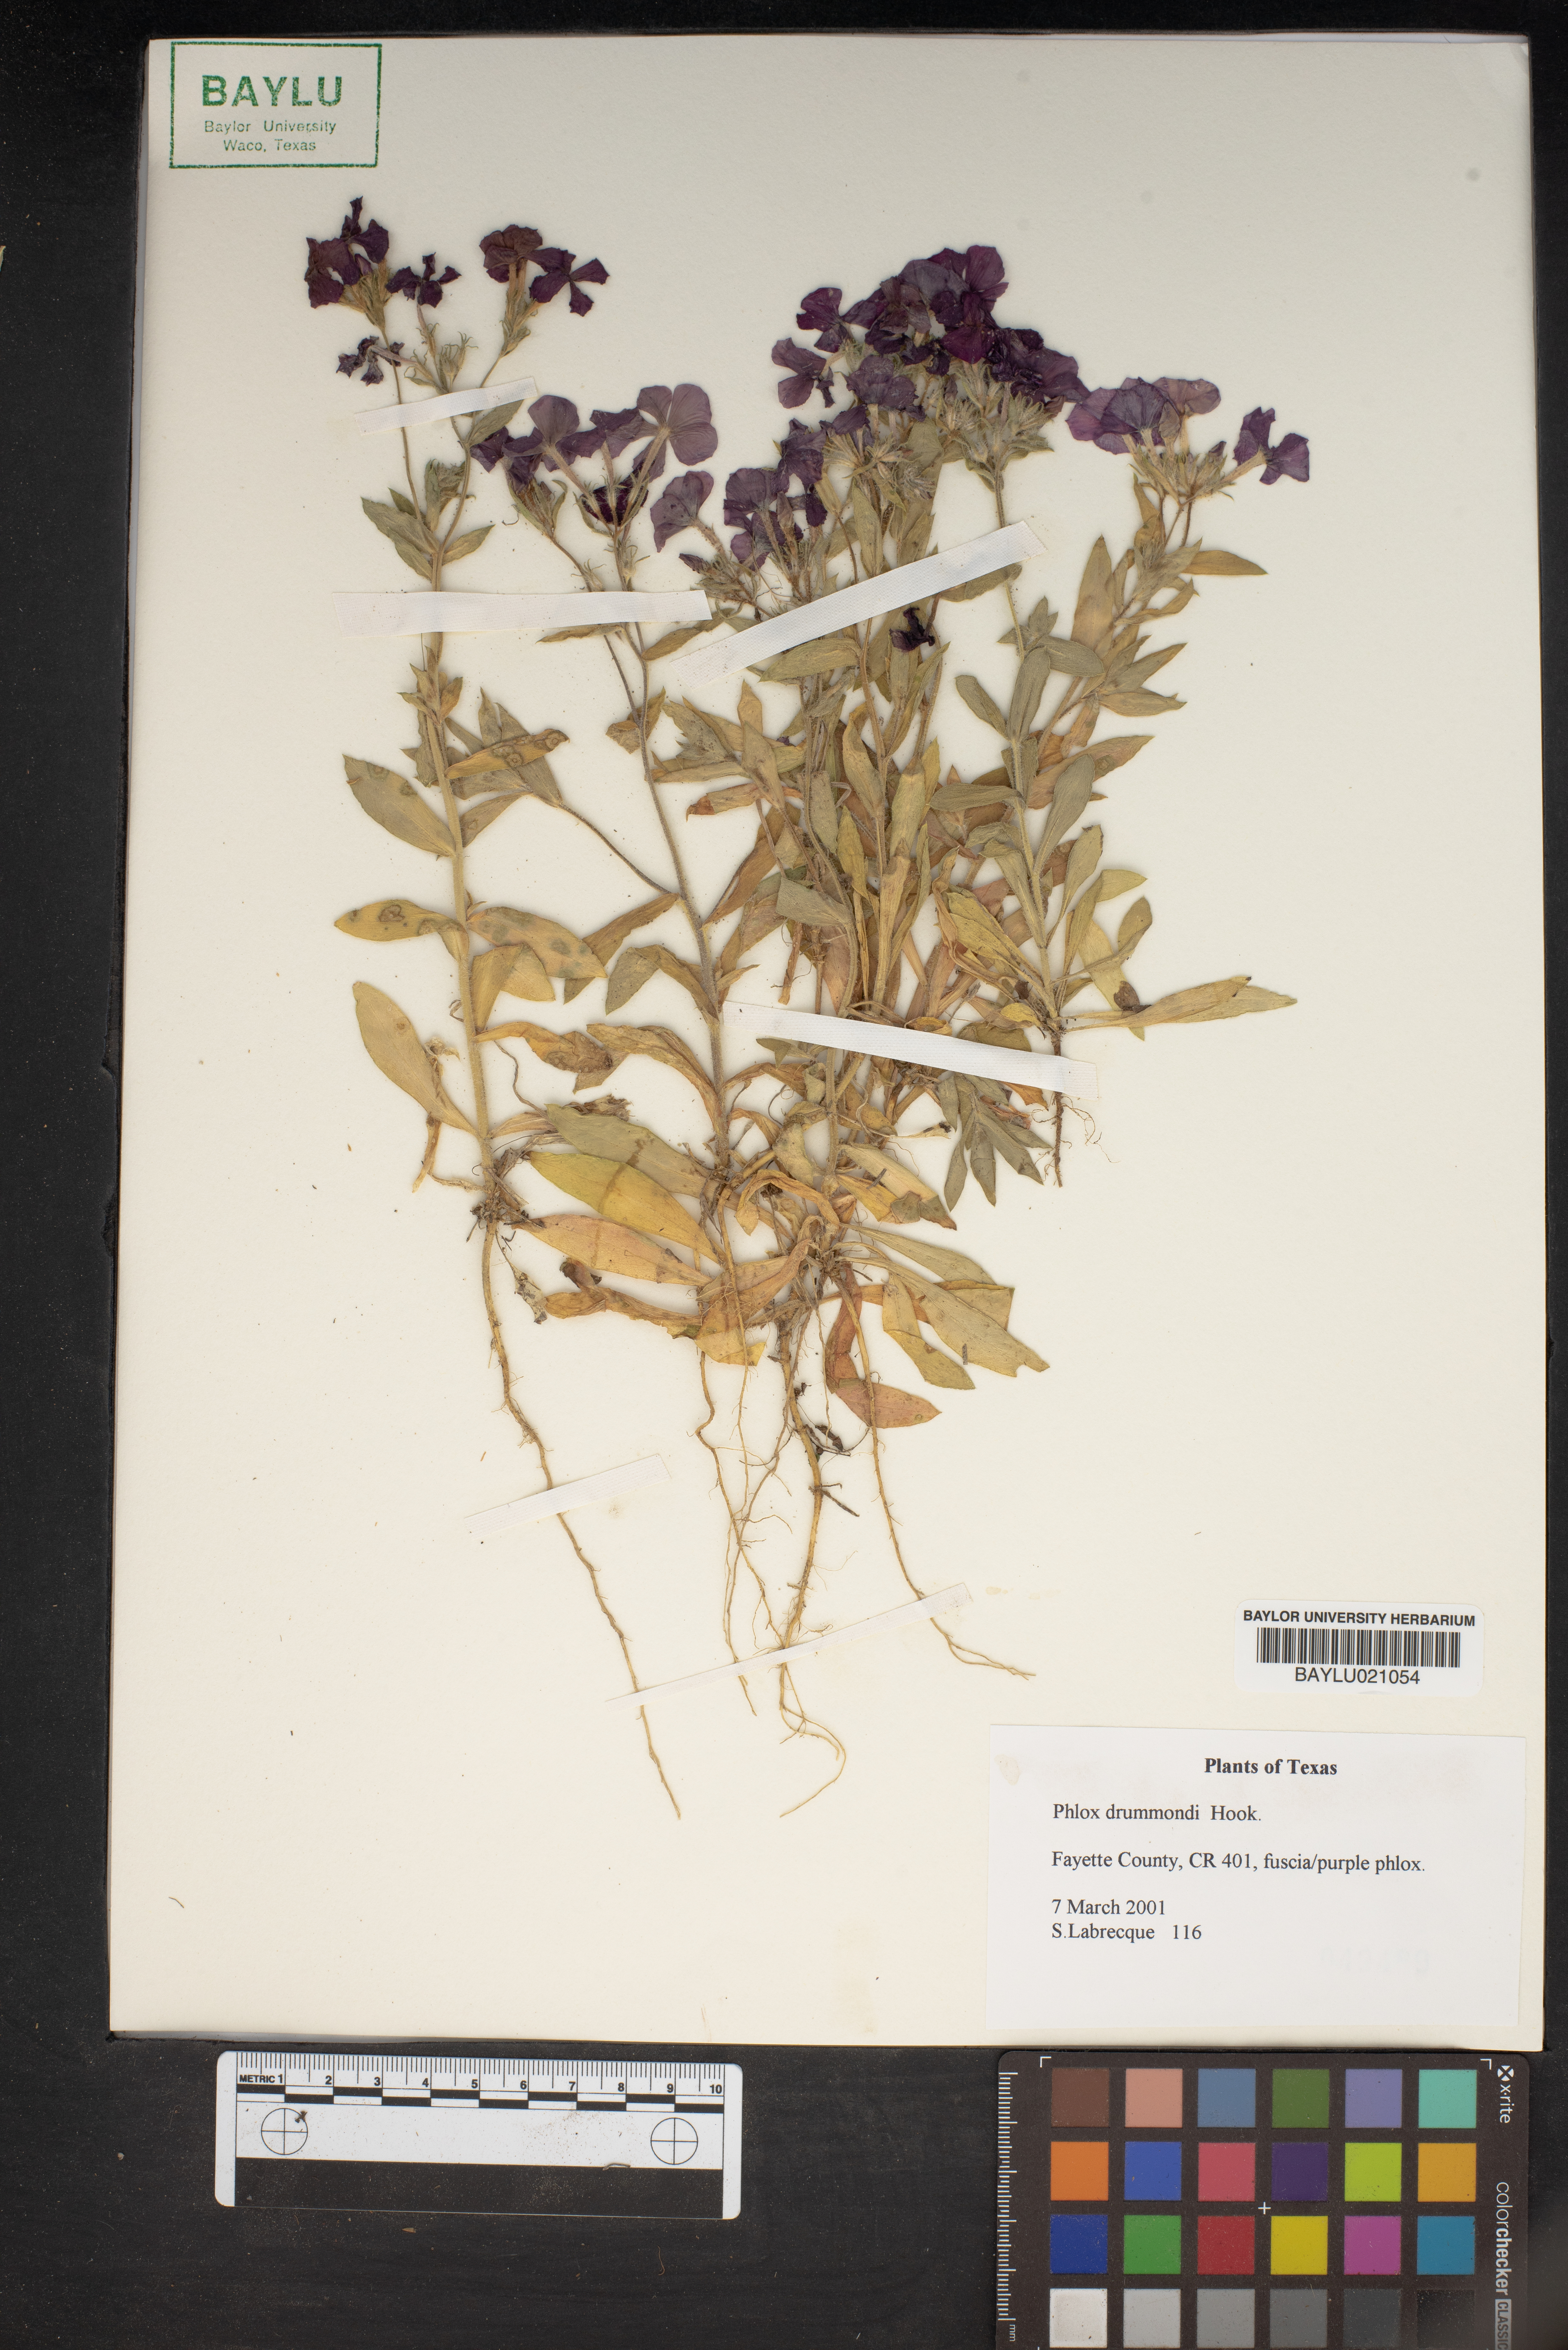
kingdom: Plantae
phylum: Tracheophyta
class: Magnoliopsida
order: Ericales
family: Polemoniaceae
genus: Phlox
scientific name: Phlox drummondii
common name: Drummond's phlox
